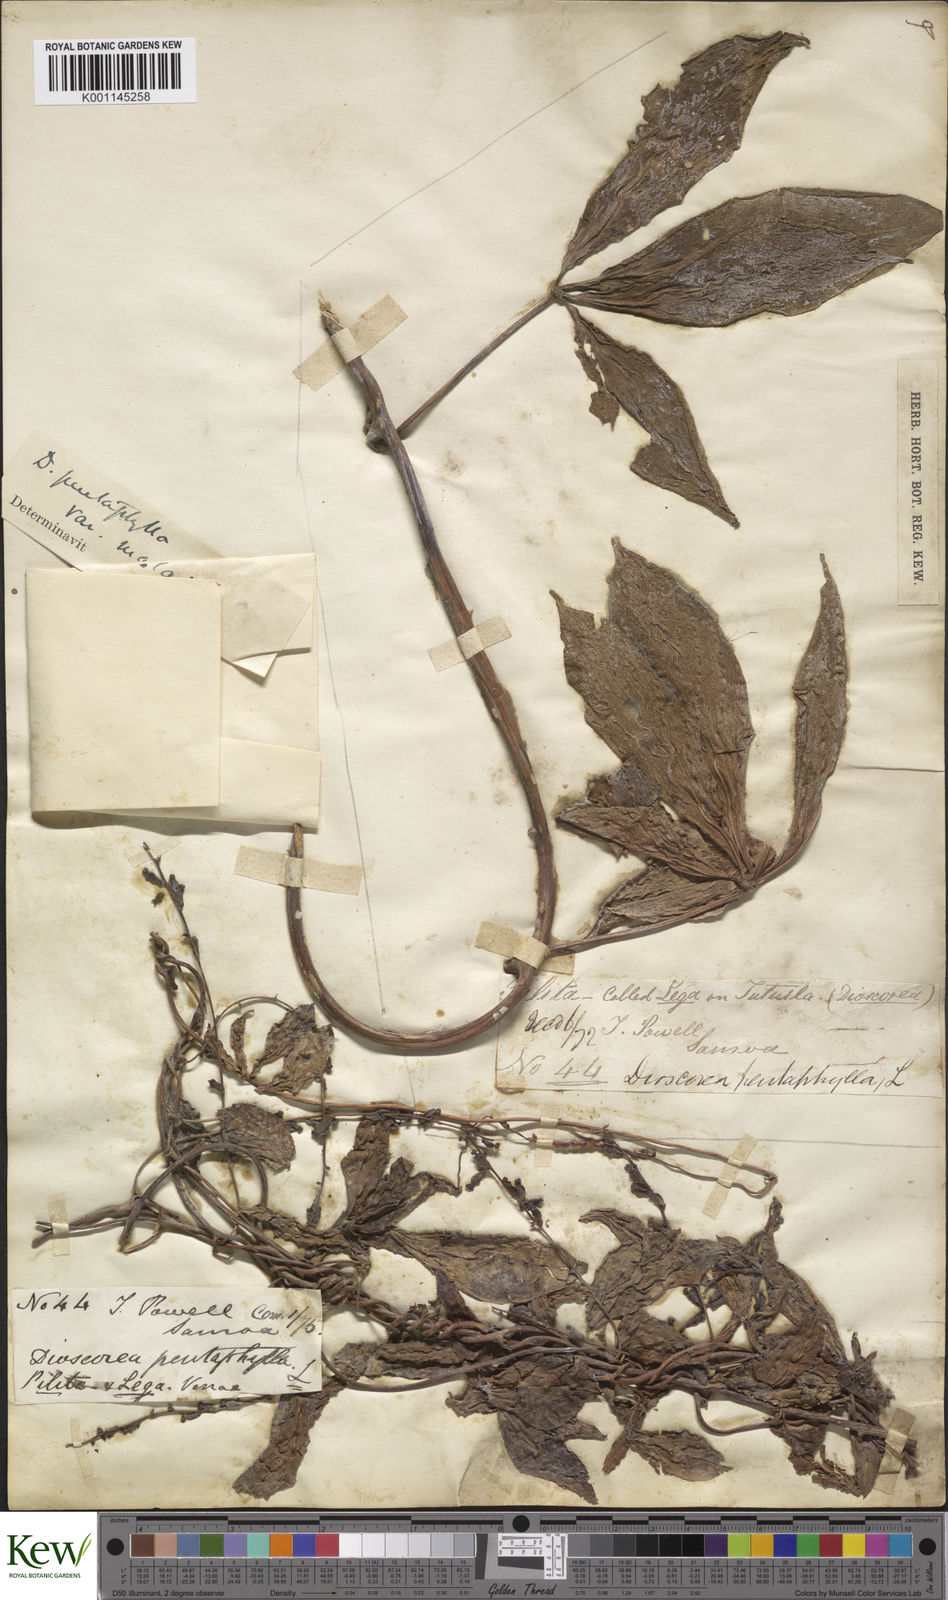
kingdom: Plantae
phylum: Tracheophyta
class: Liliopsida
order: Dioscoreales
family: Dioscoreaceae
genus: Dioscorea
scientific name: Dioscorea pentaphylla
